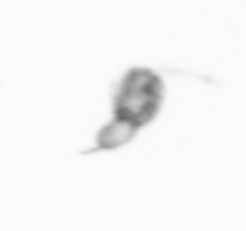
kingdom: Animalia
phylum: Arthropoda
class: Copepoda
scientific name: Copepoda
